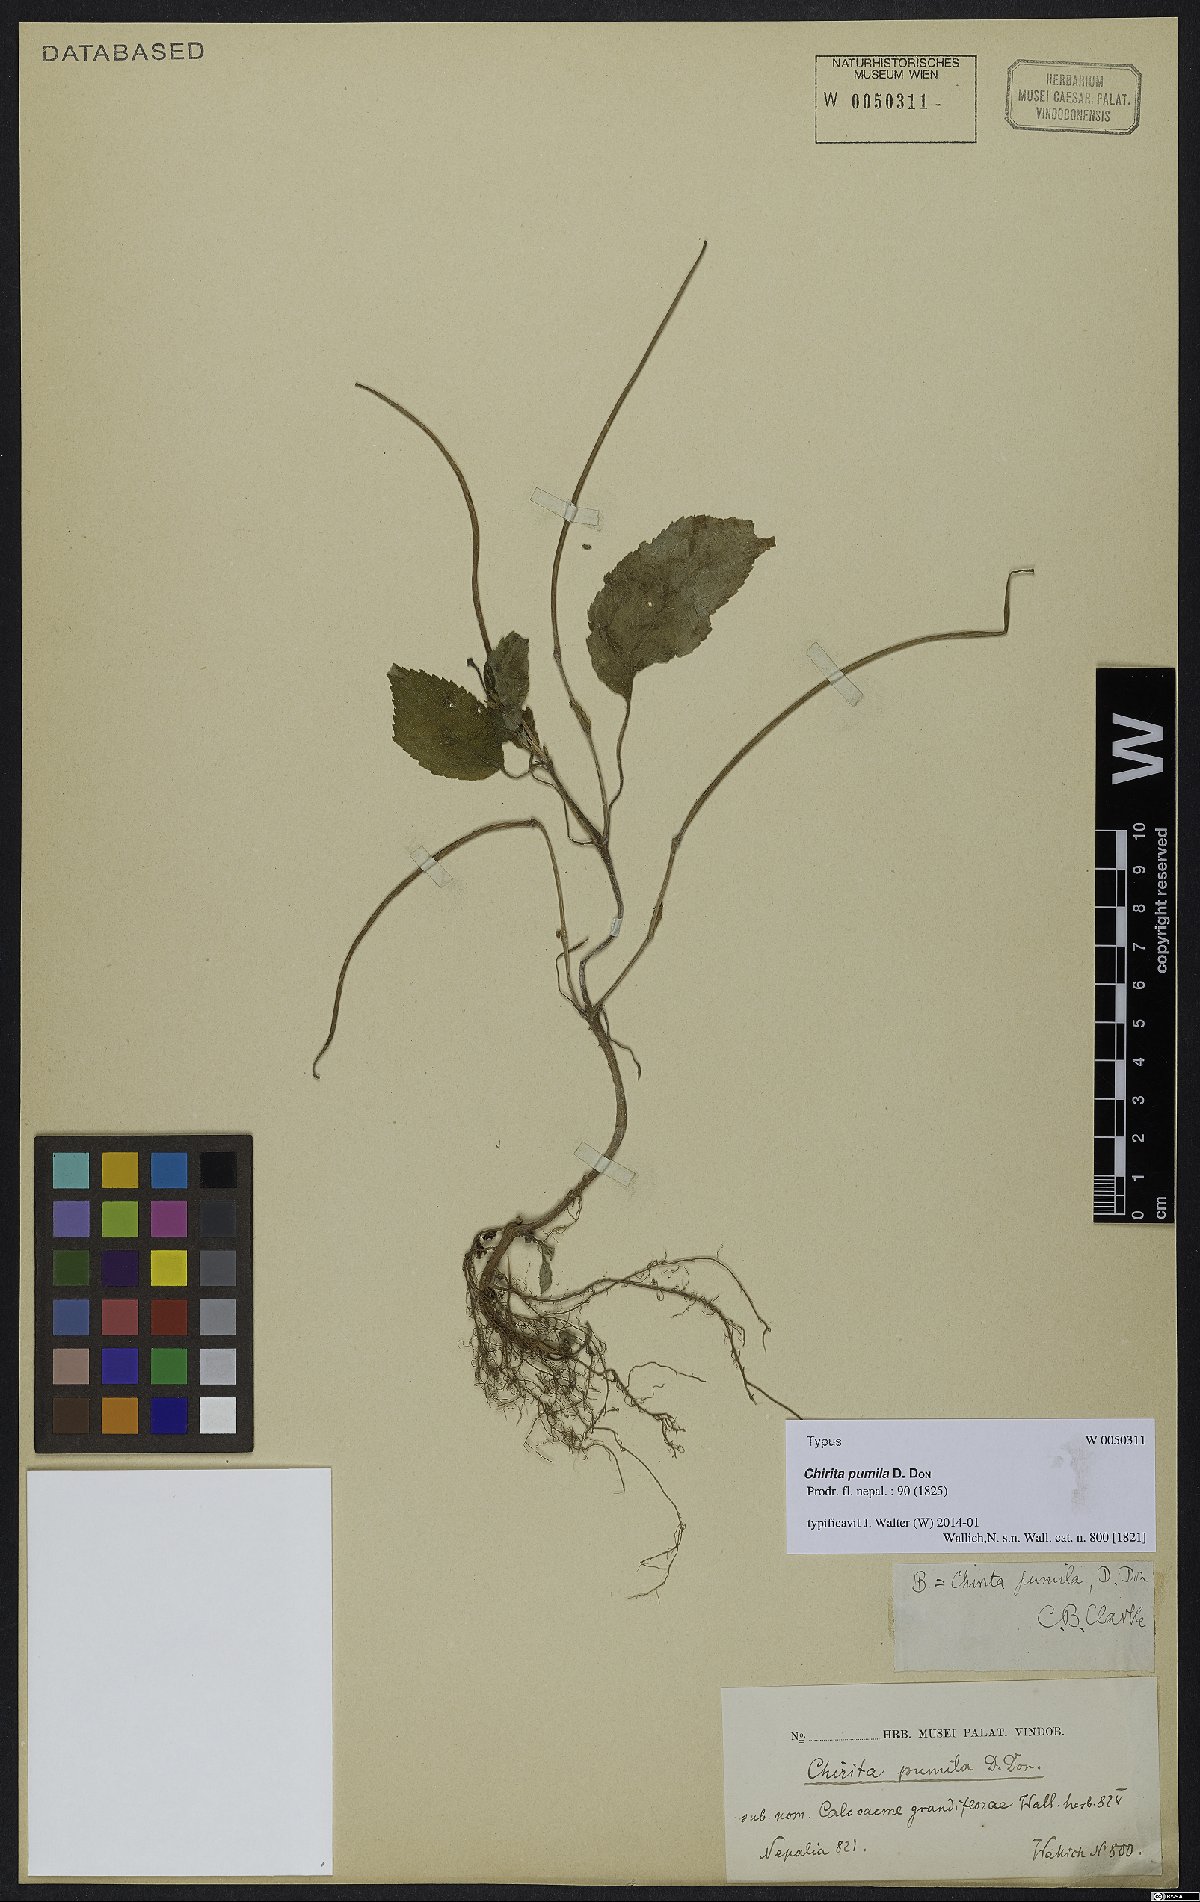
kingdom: Plantae
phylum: Tracheophyta
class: Magnoliopsida
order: Lamiales
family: Gesneriaceae
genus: Henckelia
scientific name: Henckelia pumila
